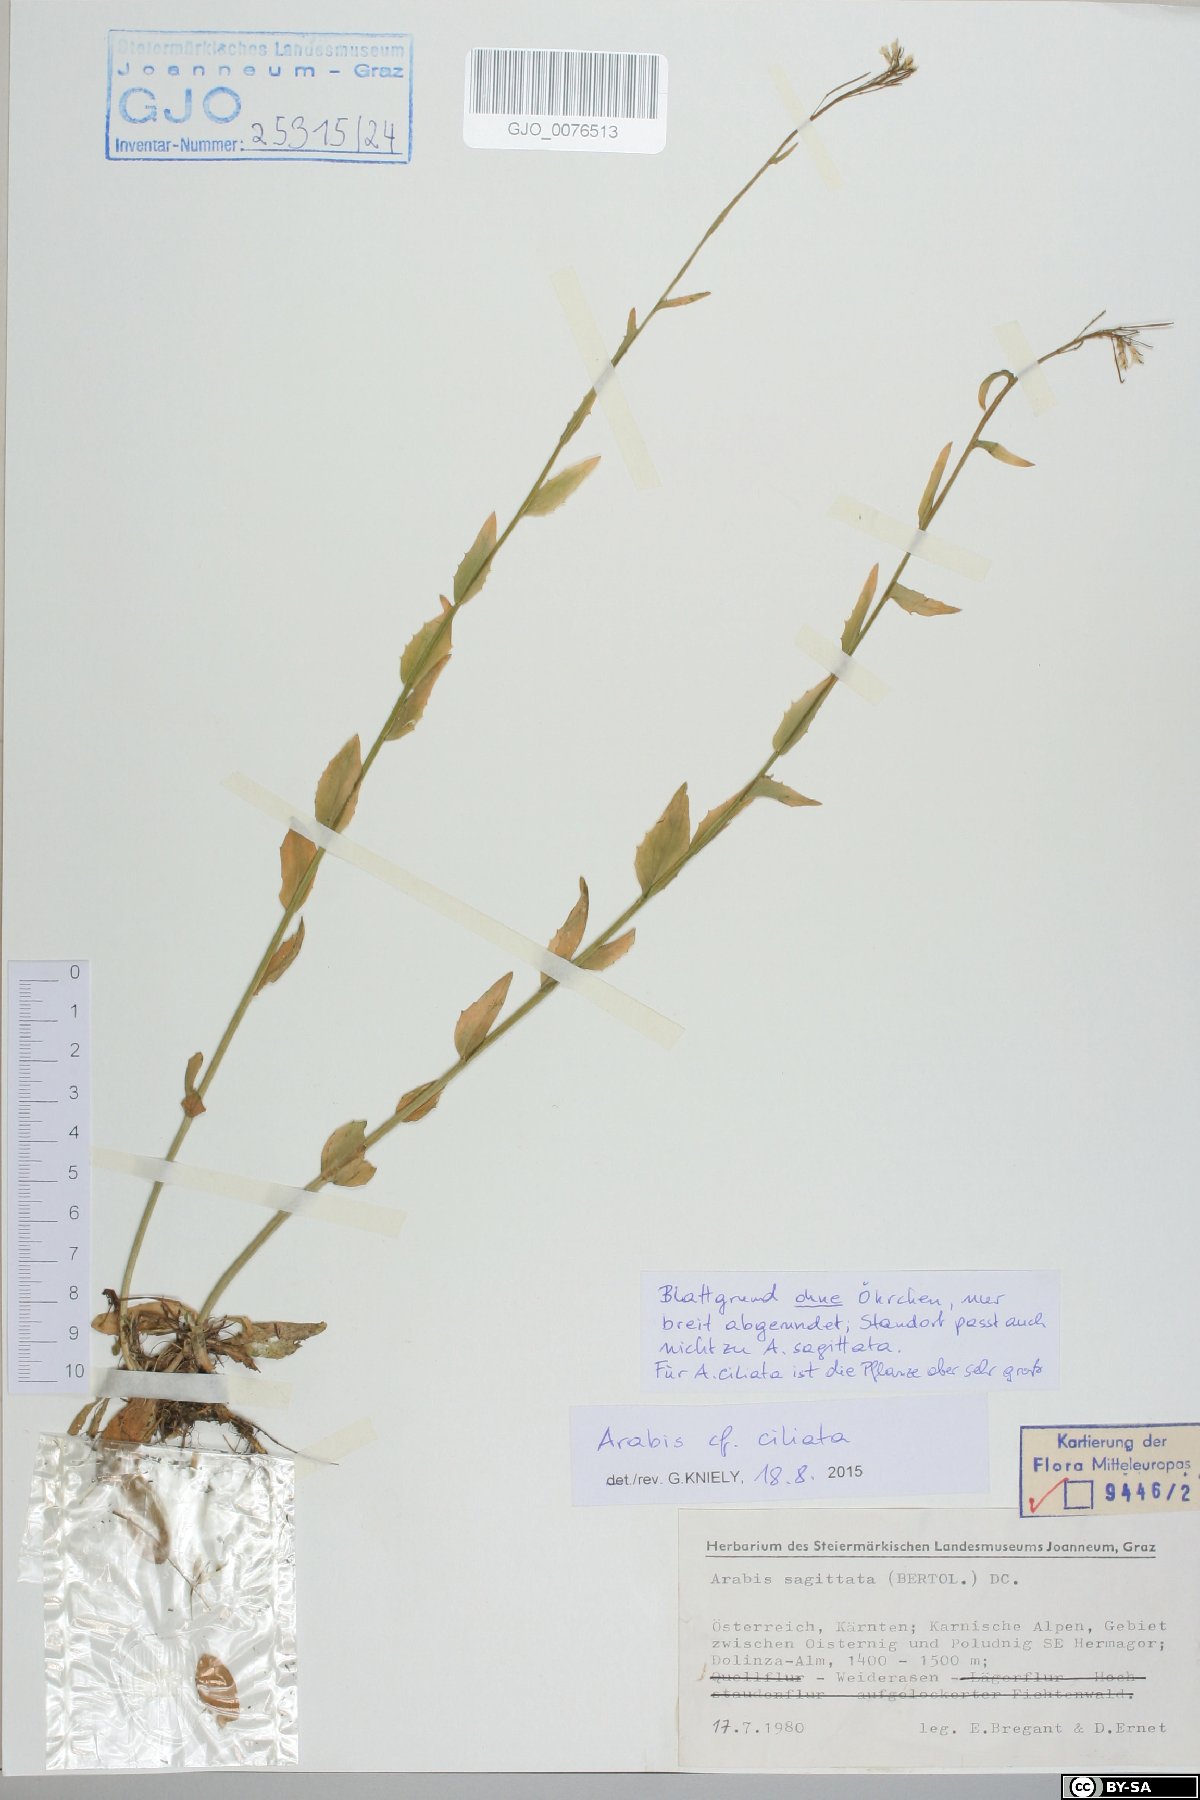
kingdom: Plantae
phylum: Tracheophyta
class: Magnoliopsida
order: Brassicales
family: Brassicaceae
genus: Arabis
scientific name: Arabis ciliata
